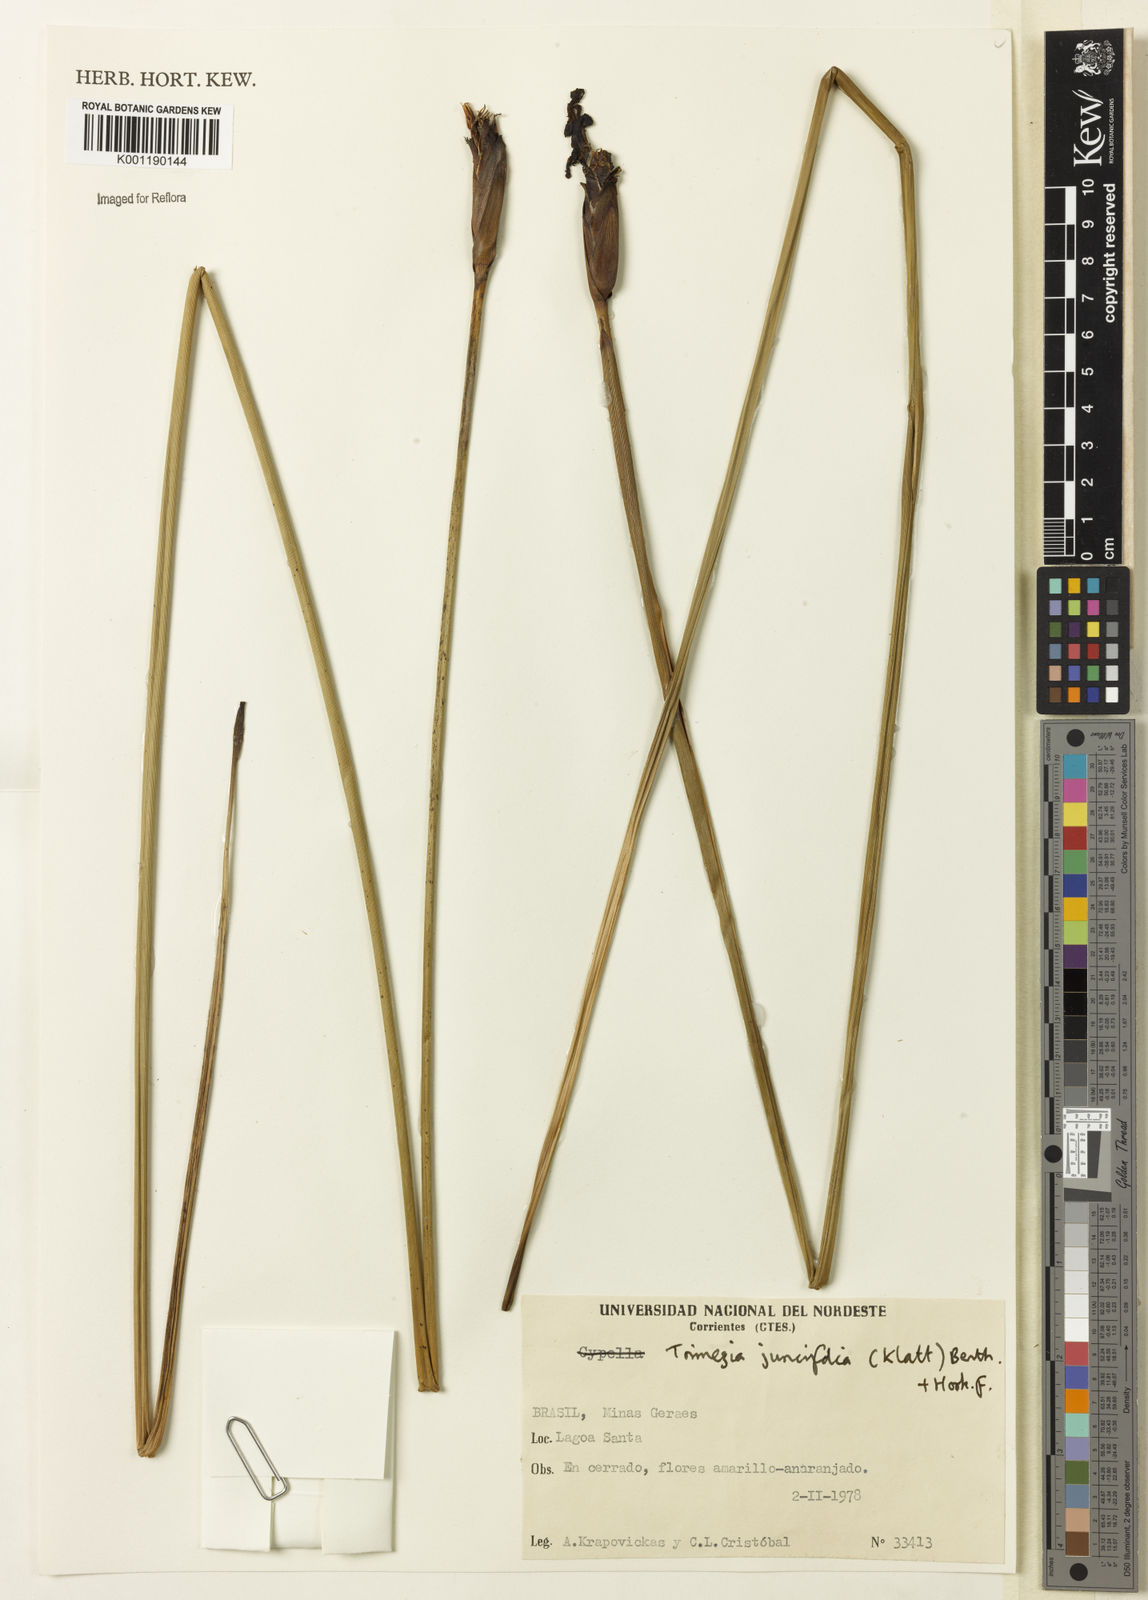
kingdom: Plantae
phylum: Tracheophyta
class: Liliopsida
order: Asparagales
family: Iridaceae
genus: Trimezia
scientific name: Trimezia juncifolia
